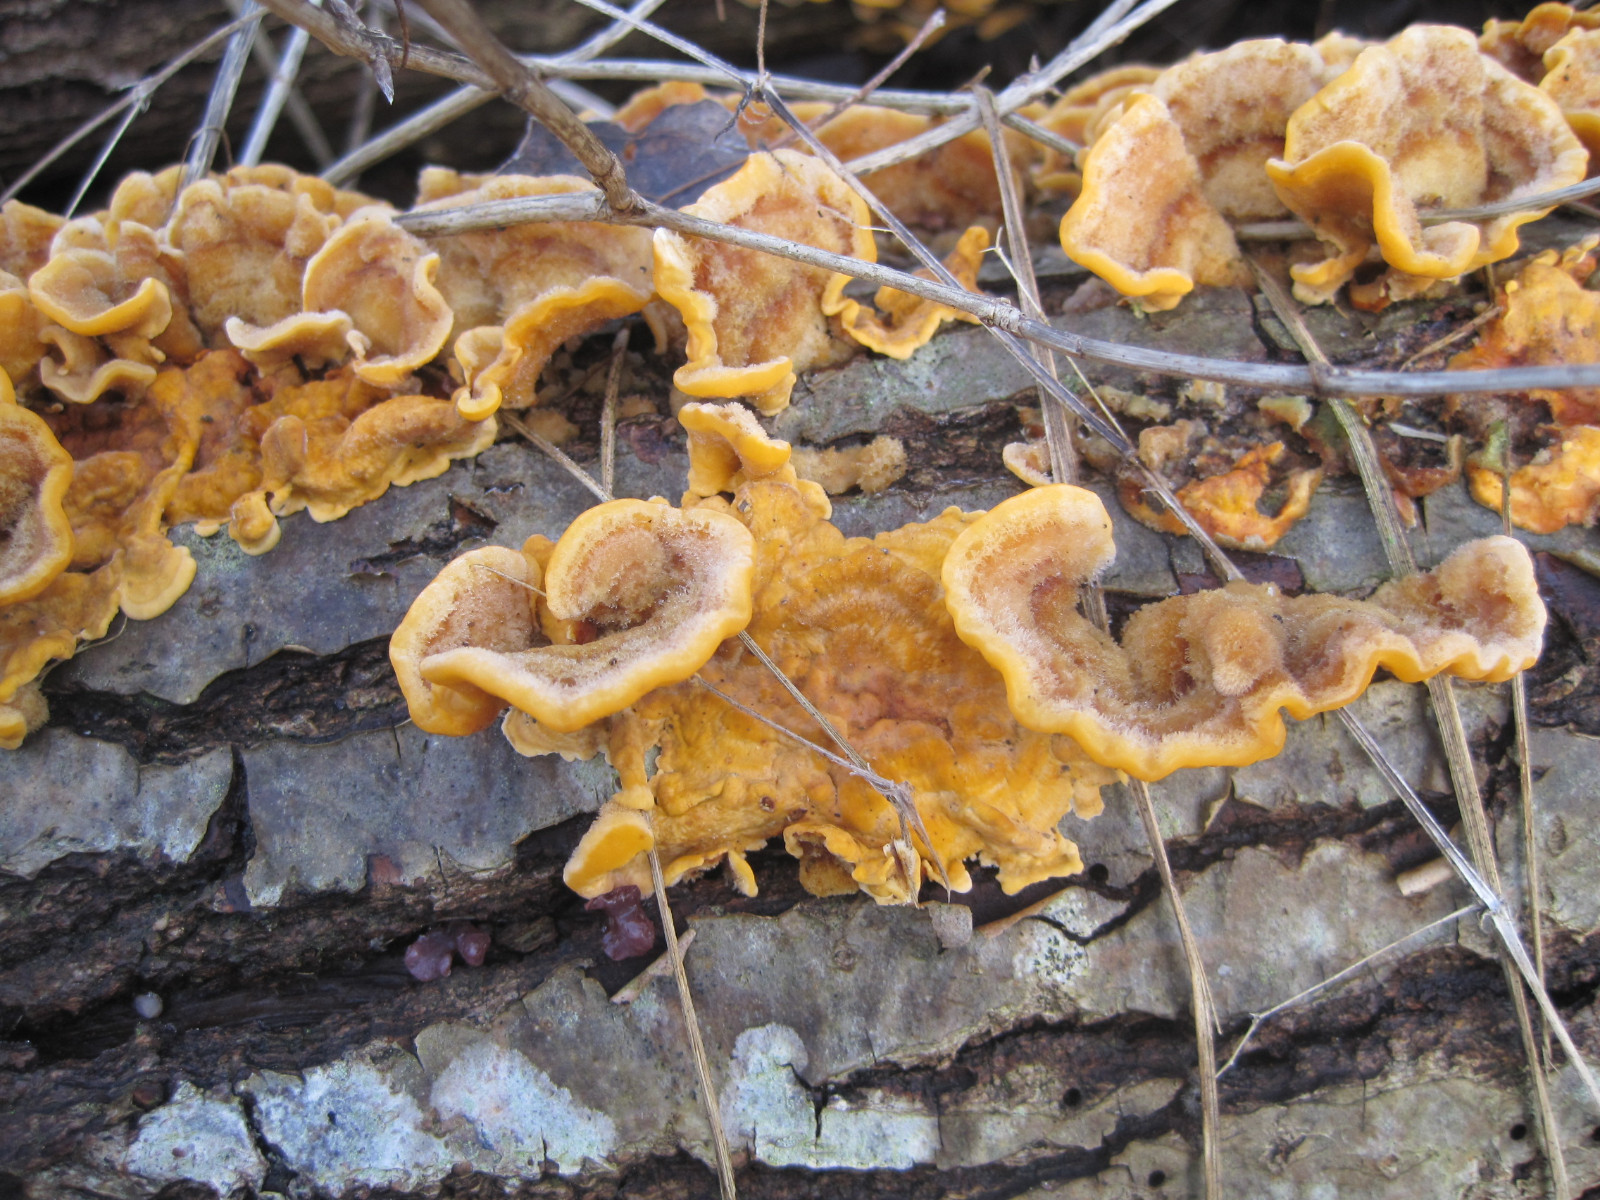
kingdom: Fungi
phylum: Basidiomycota
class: Agaricomycetes
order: Russulales
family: Stereaceae
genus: Stereum
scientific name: Stereum hirsutum
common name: håret lædersvamp
